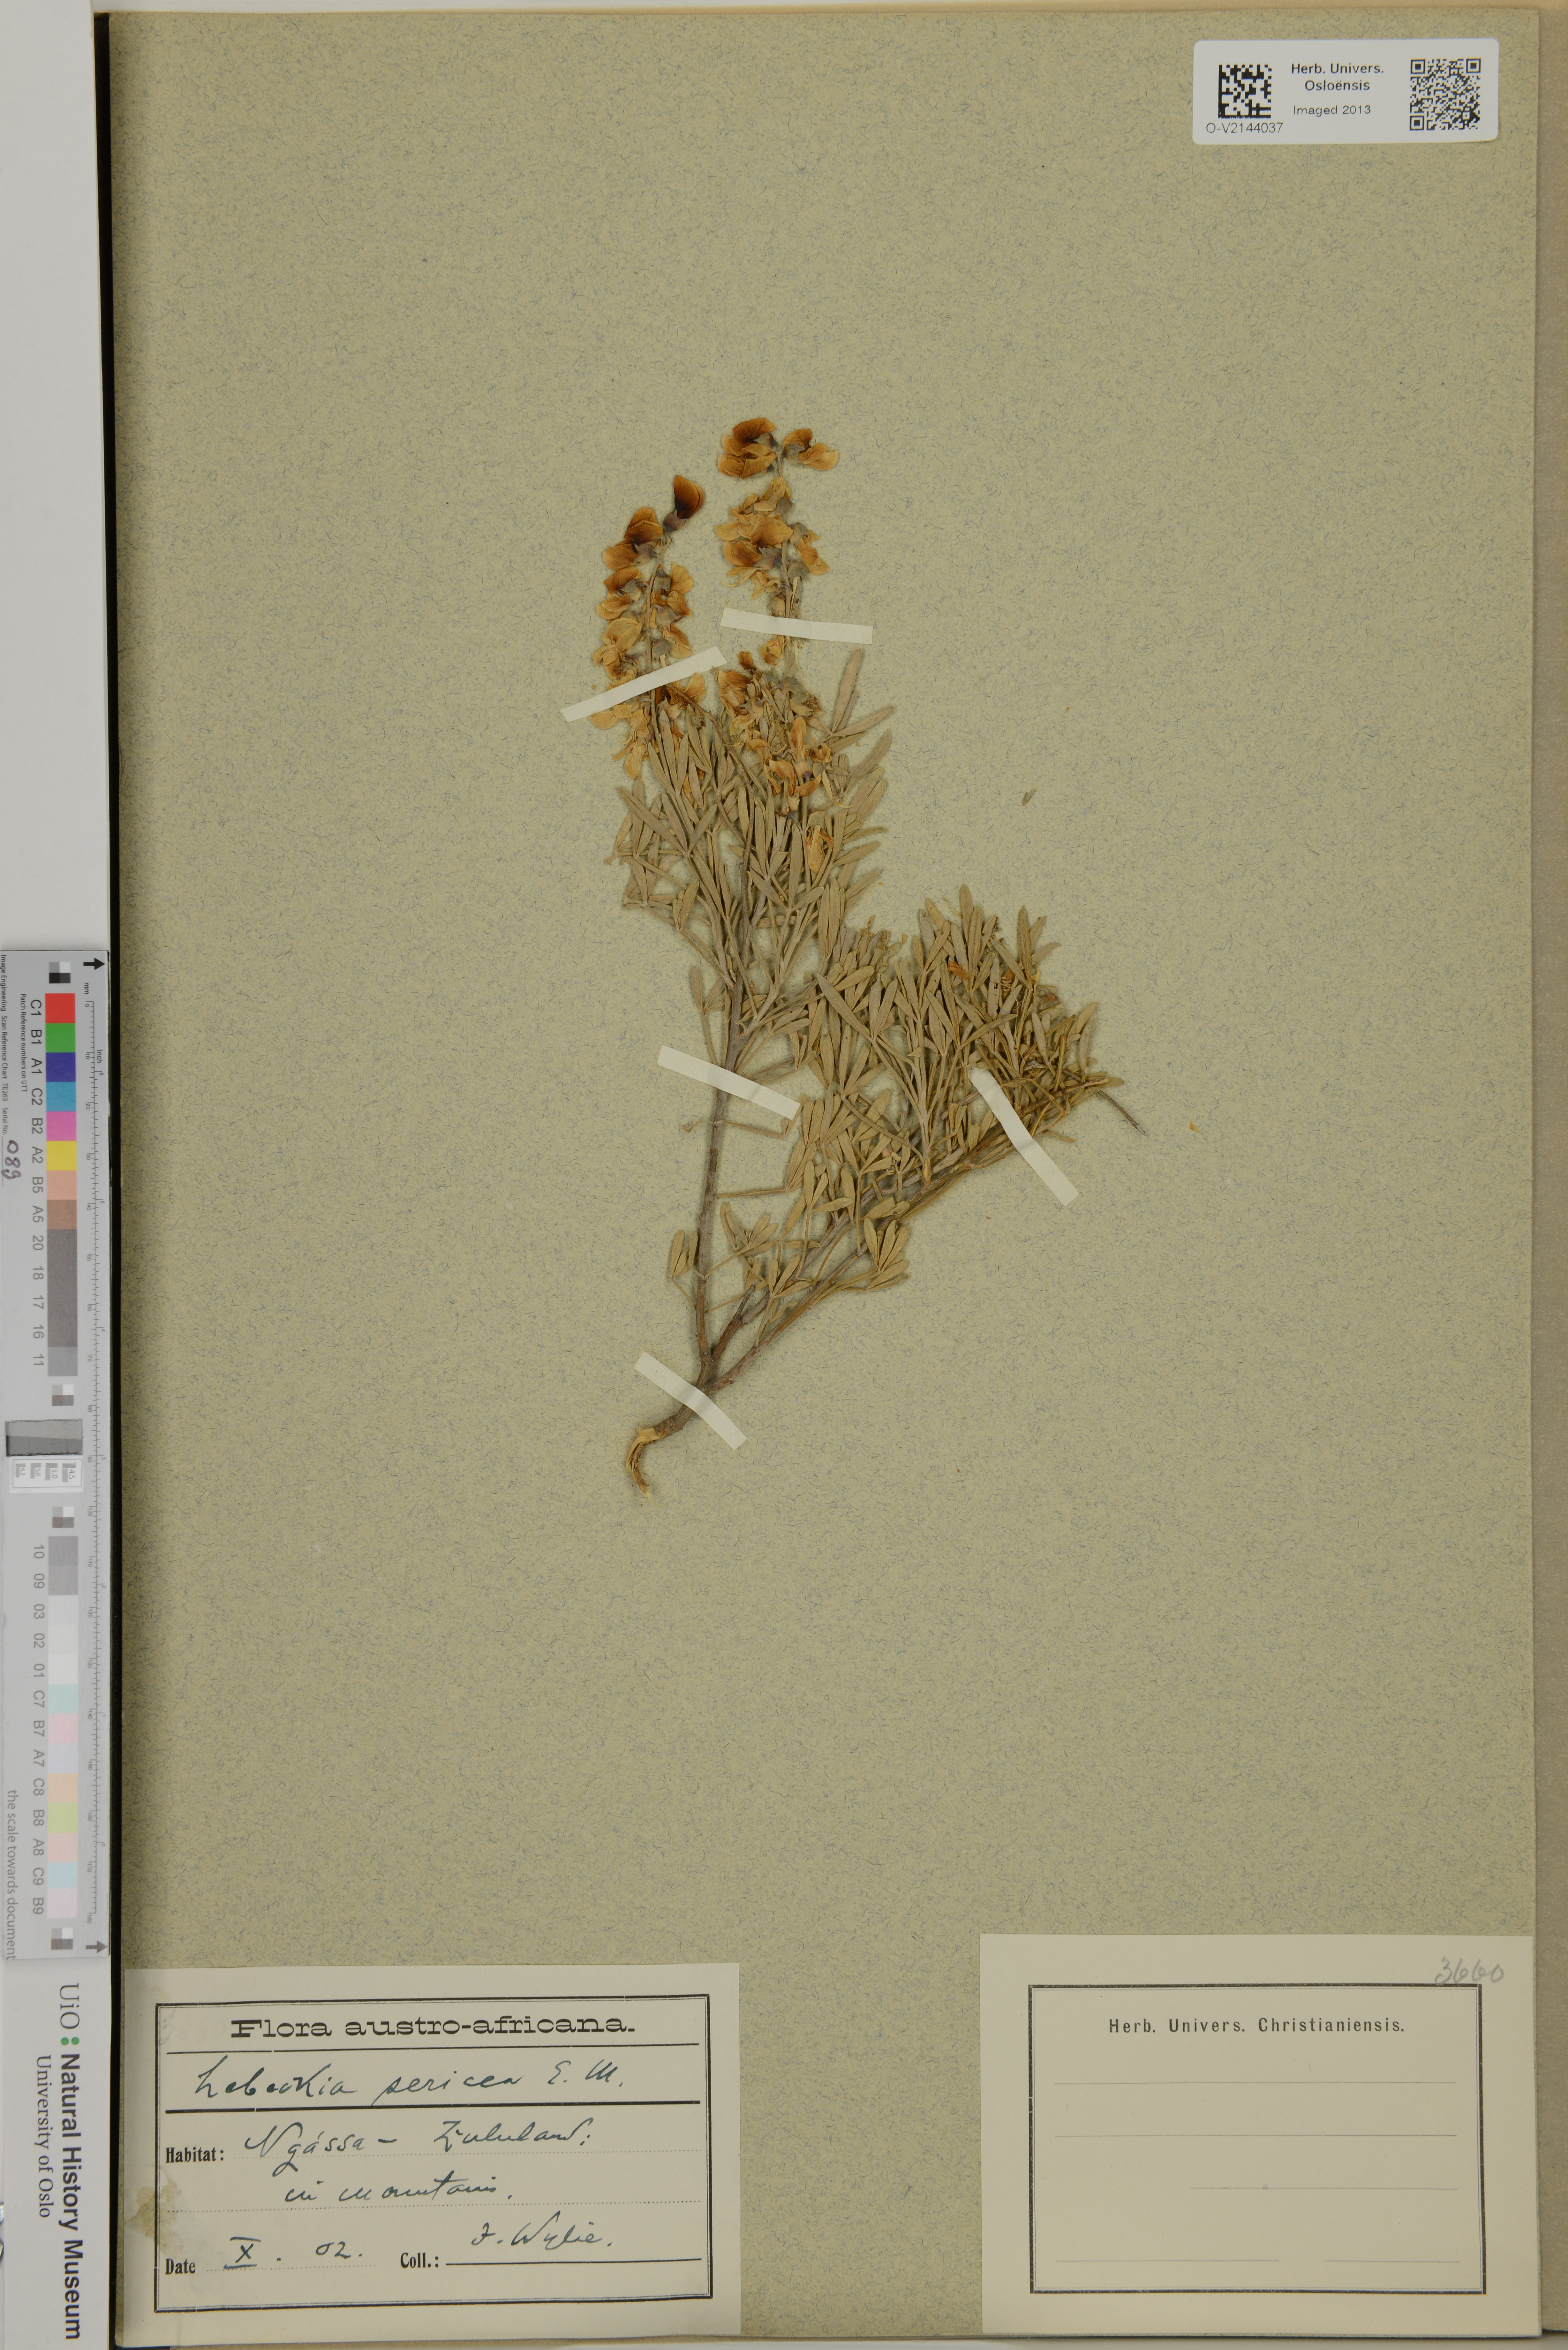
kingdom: Plantae
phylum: Tracheophyta
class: Magnoliopsida
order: Fabales
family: Fabaceae
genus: Calobota
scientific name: Calobota sericea
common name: Silver-pea
